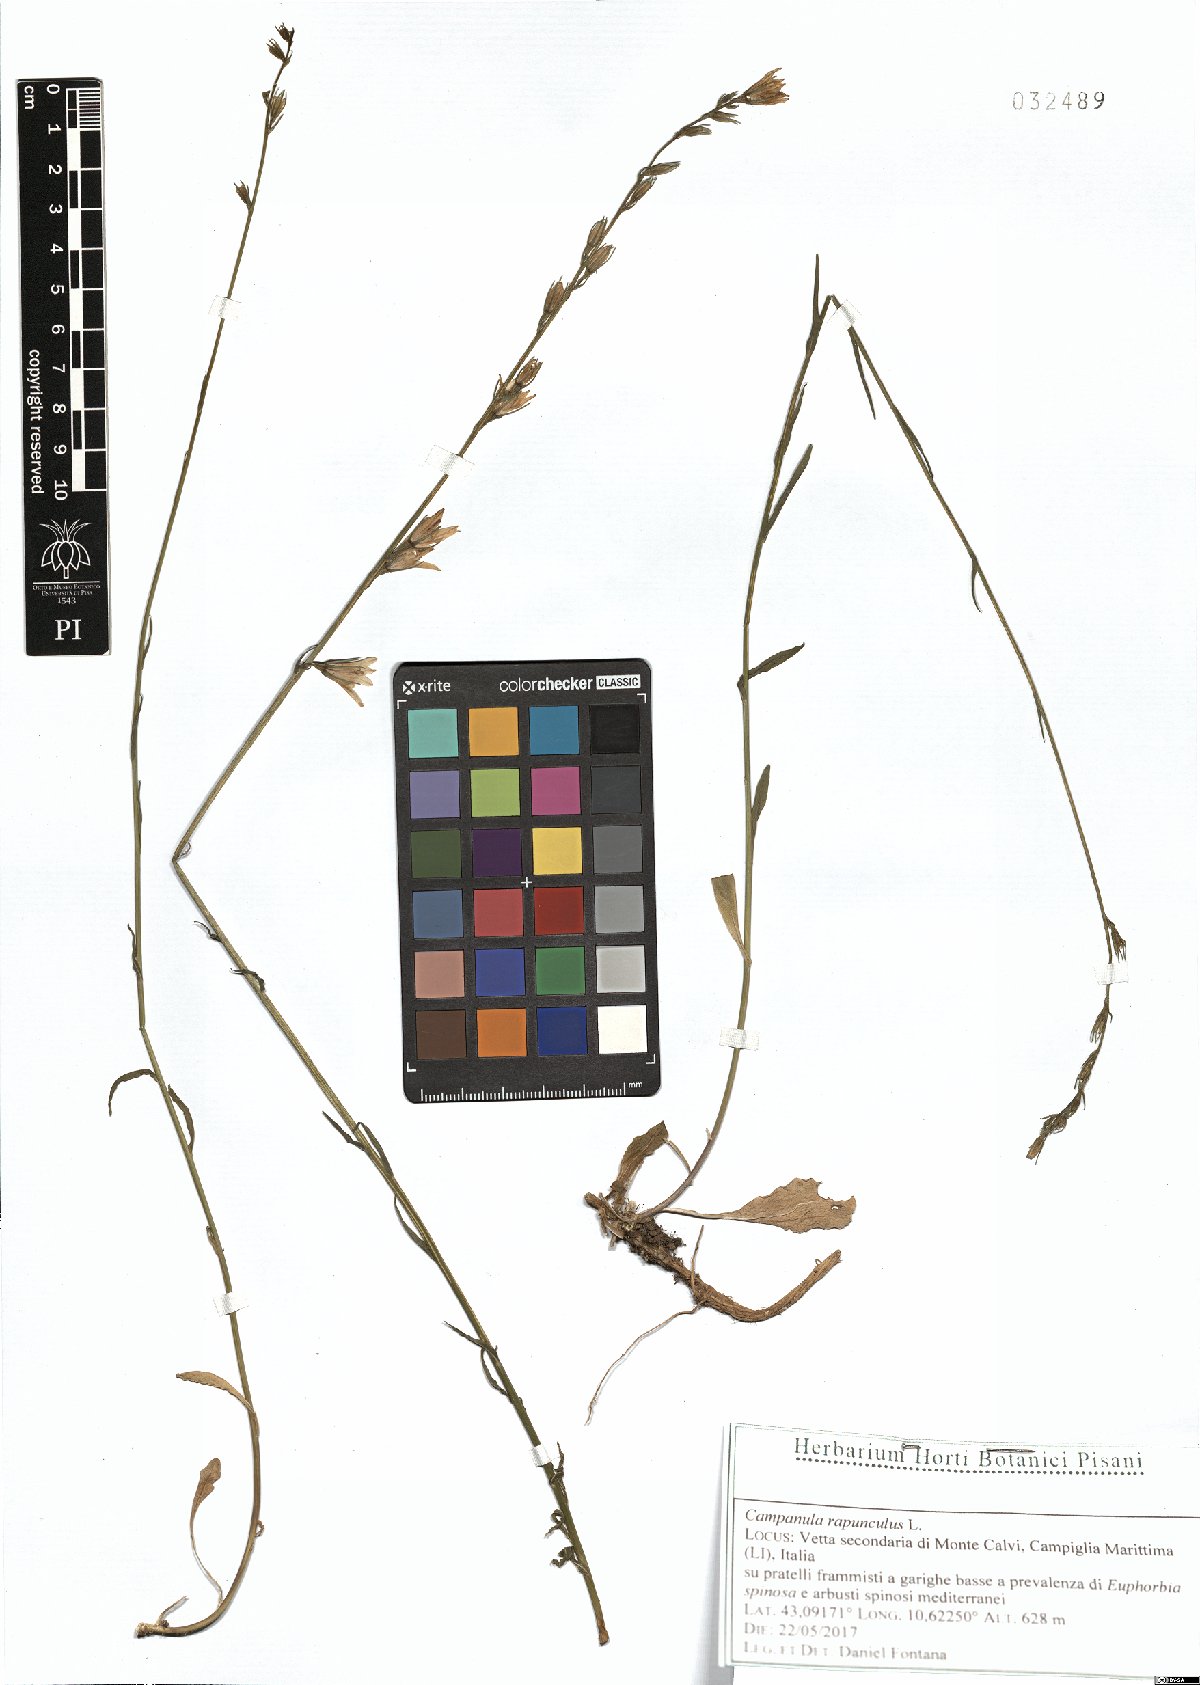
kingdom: Plantae
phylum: Tracheophyta
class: Magnoliopsida
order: Asterales
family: Campanulaceae
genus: Campanula
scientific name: Campanula rapunculus
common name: Rampion bellflower
